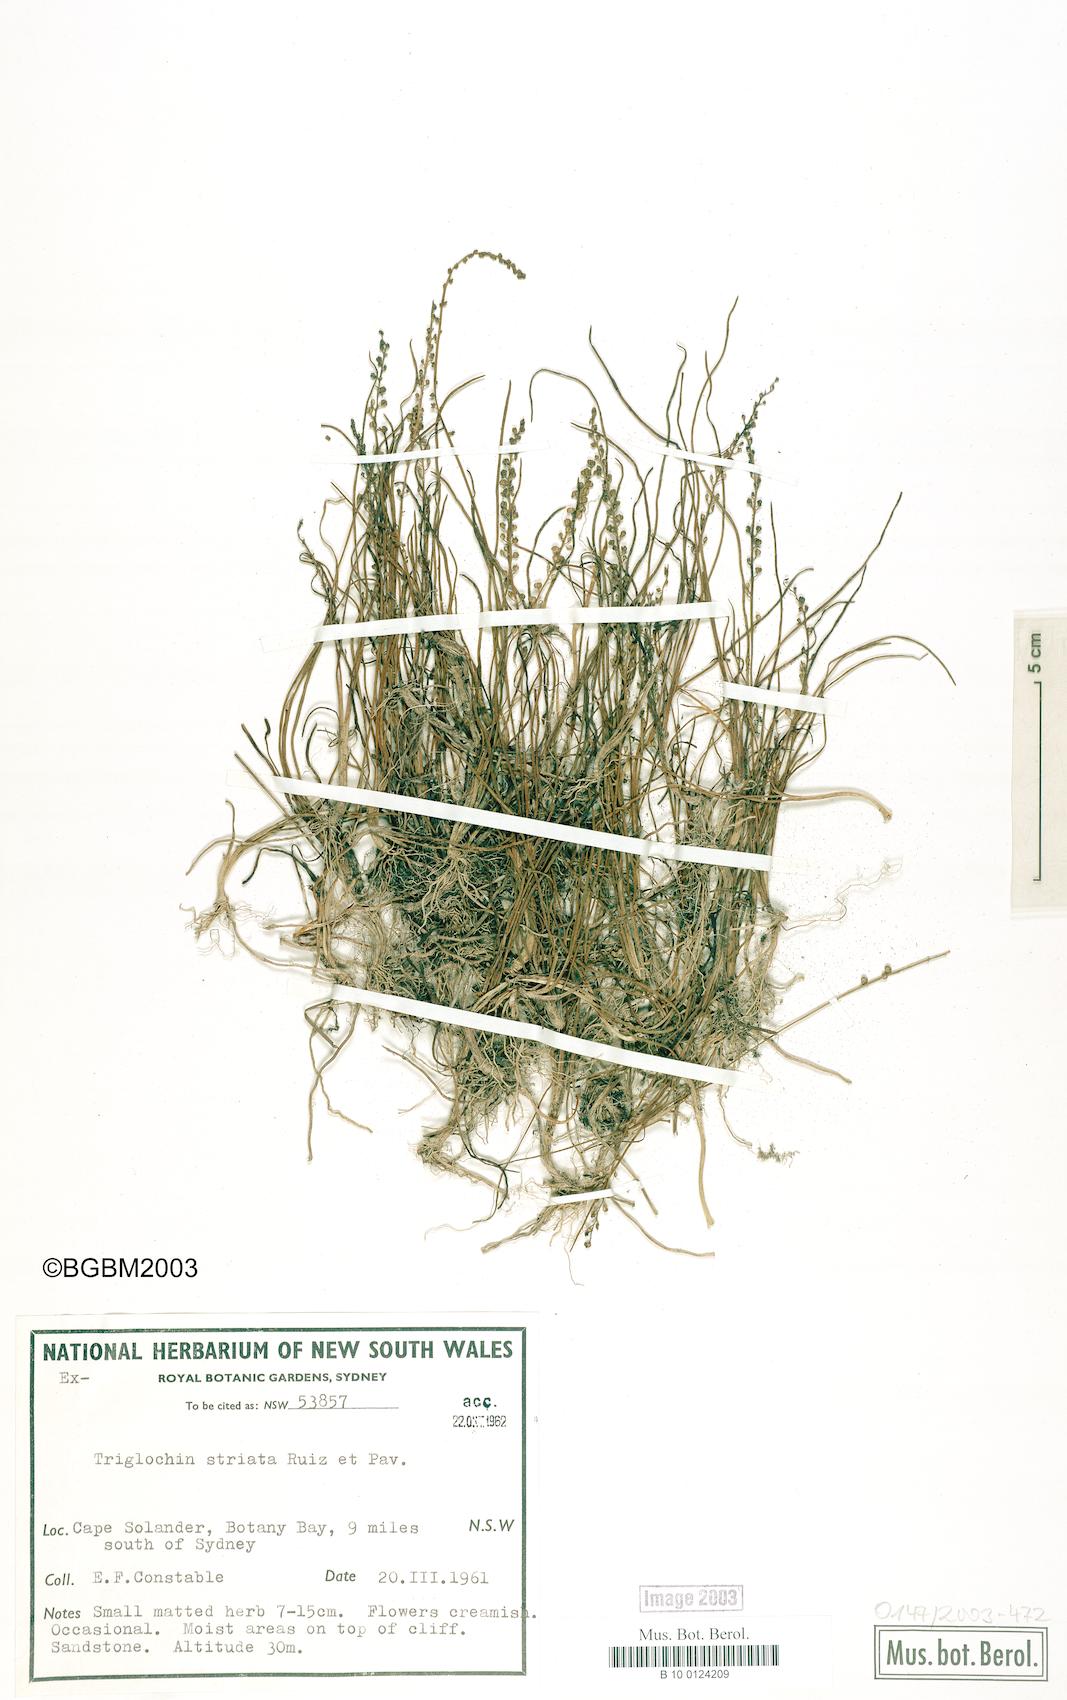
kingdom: Plantae
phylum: Tracheophyta
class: Liliopsida
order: Alismatales
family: Juncaginaceae
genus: Triglochin
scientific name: Triglochin striata
